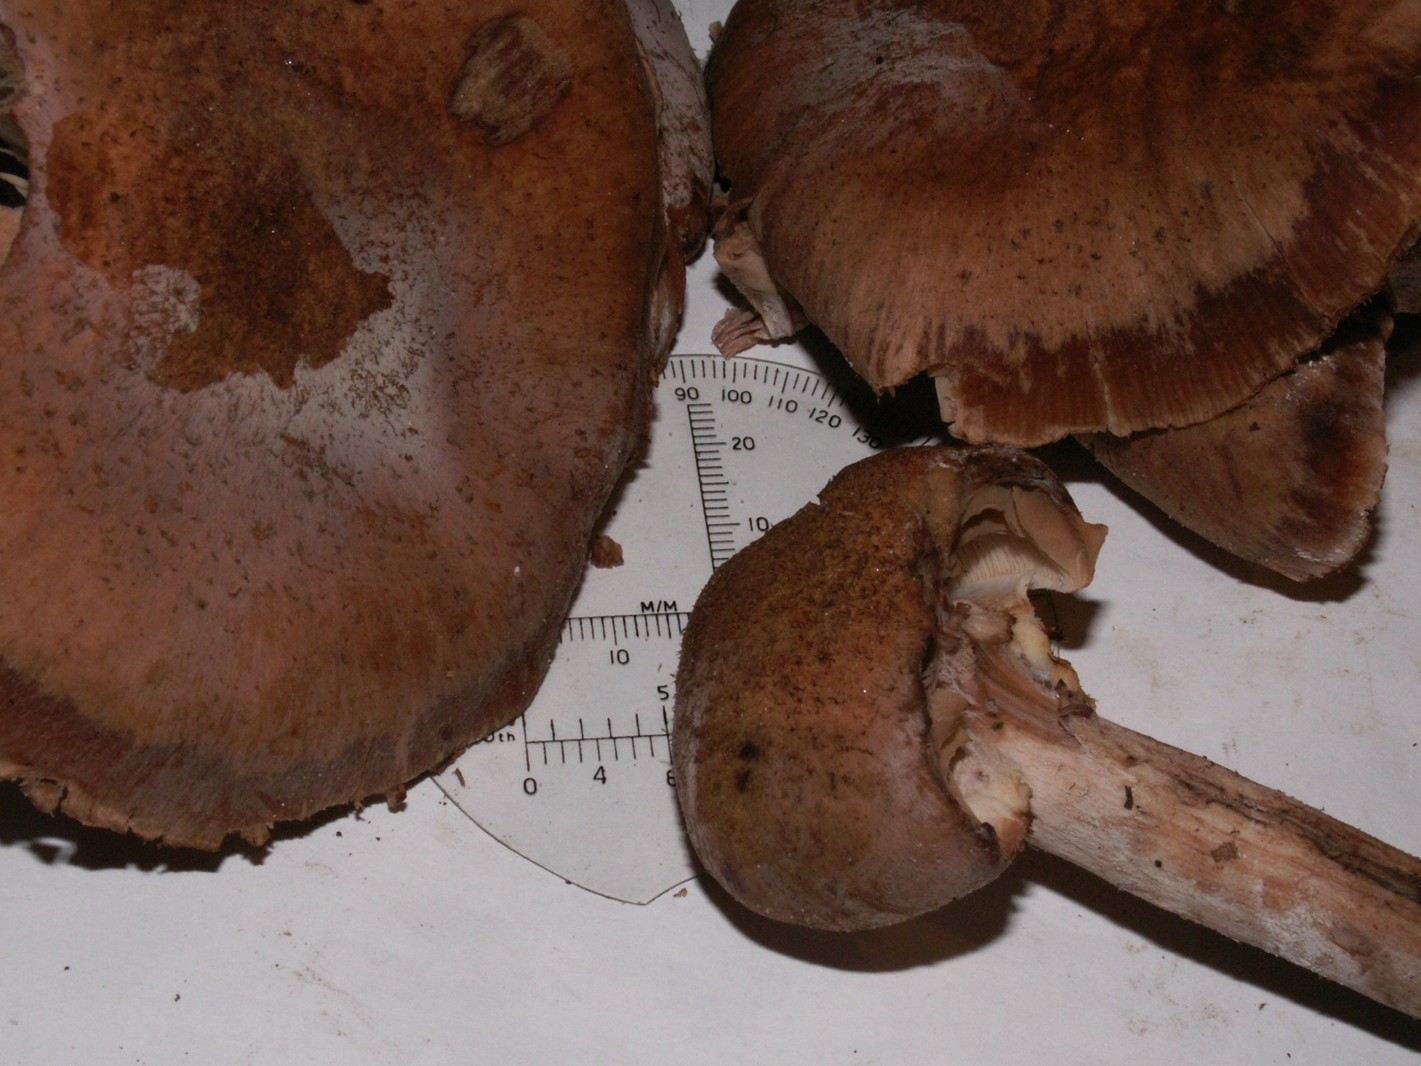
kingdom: Fungi
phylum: Basidiomycota
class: Agaricomycetes
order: Agaricales
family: Physalacriaceae
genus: Armillaria
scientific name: Armillaria ostoyae
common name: mørk honningsvamp
